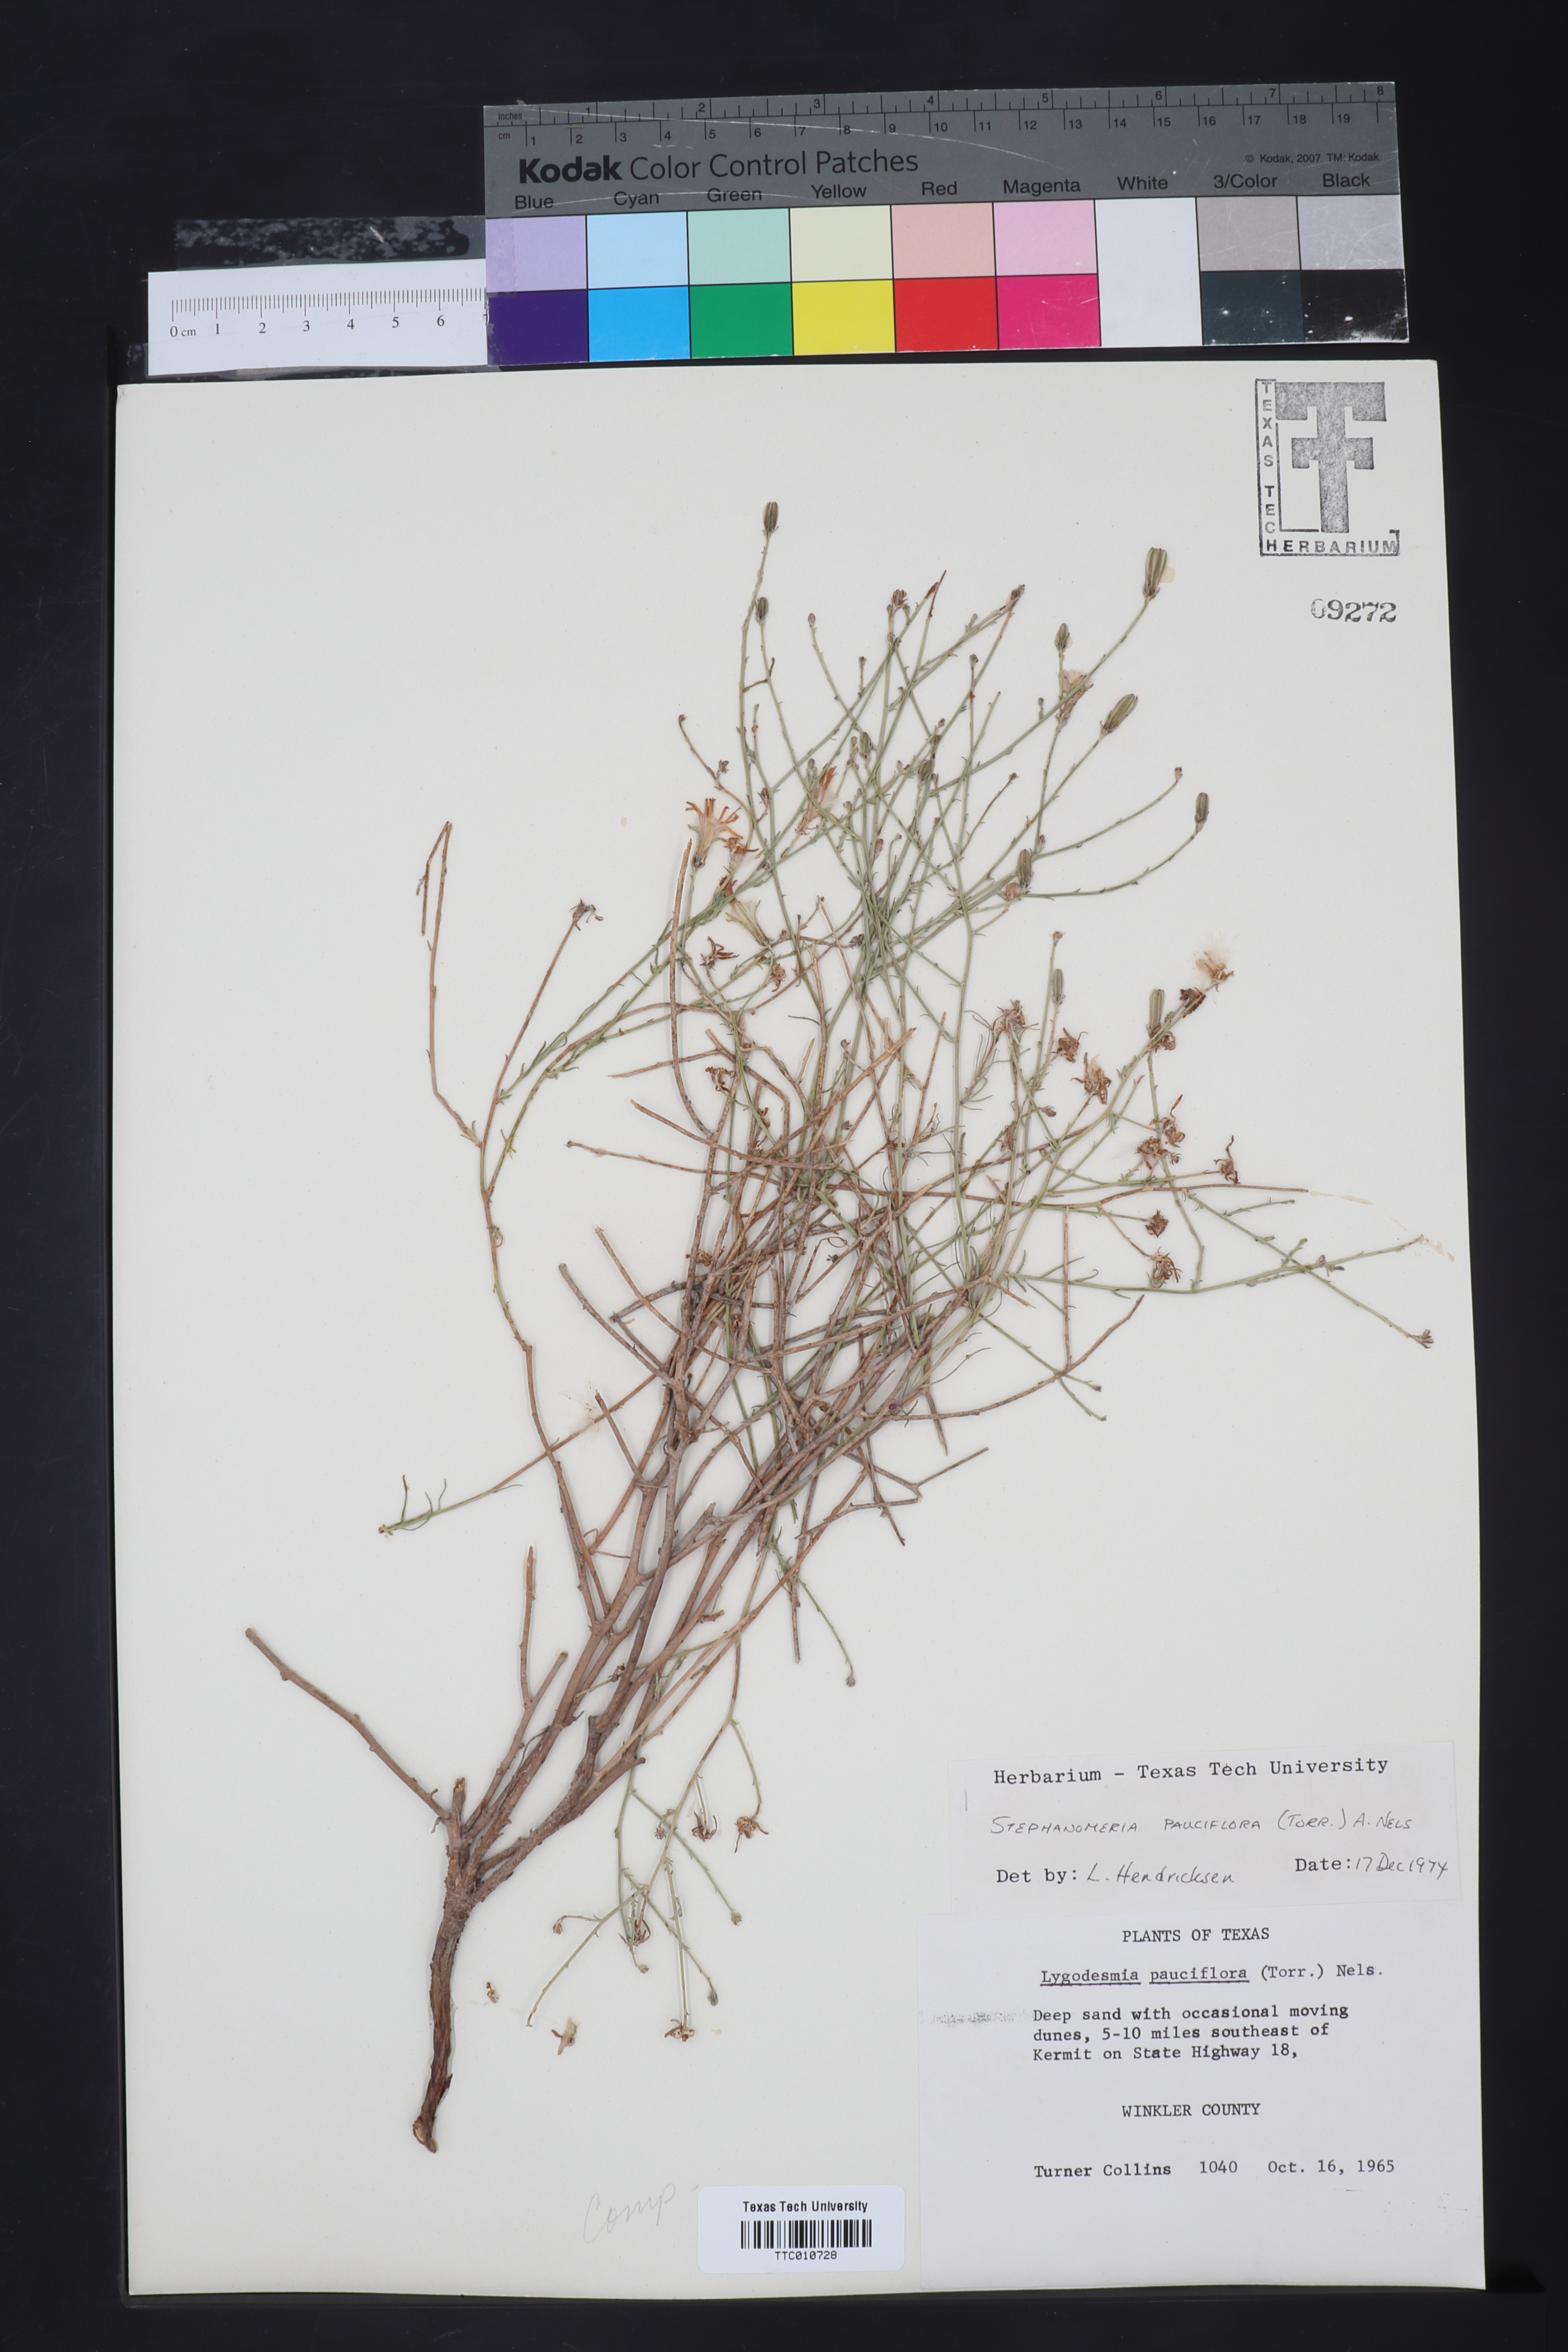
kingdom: Plantae
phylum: Tracheophyta
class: Magnoliopsida
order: Asterales
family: Asteraceae
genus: Stephanomeria
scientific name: Stephanomeria pauciflora
